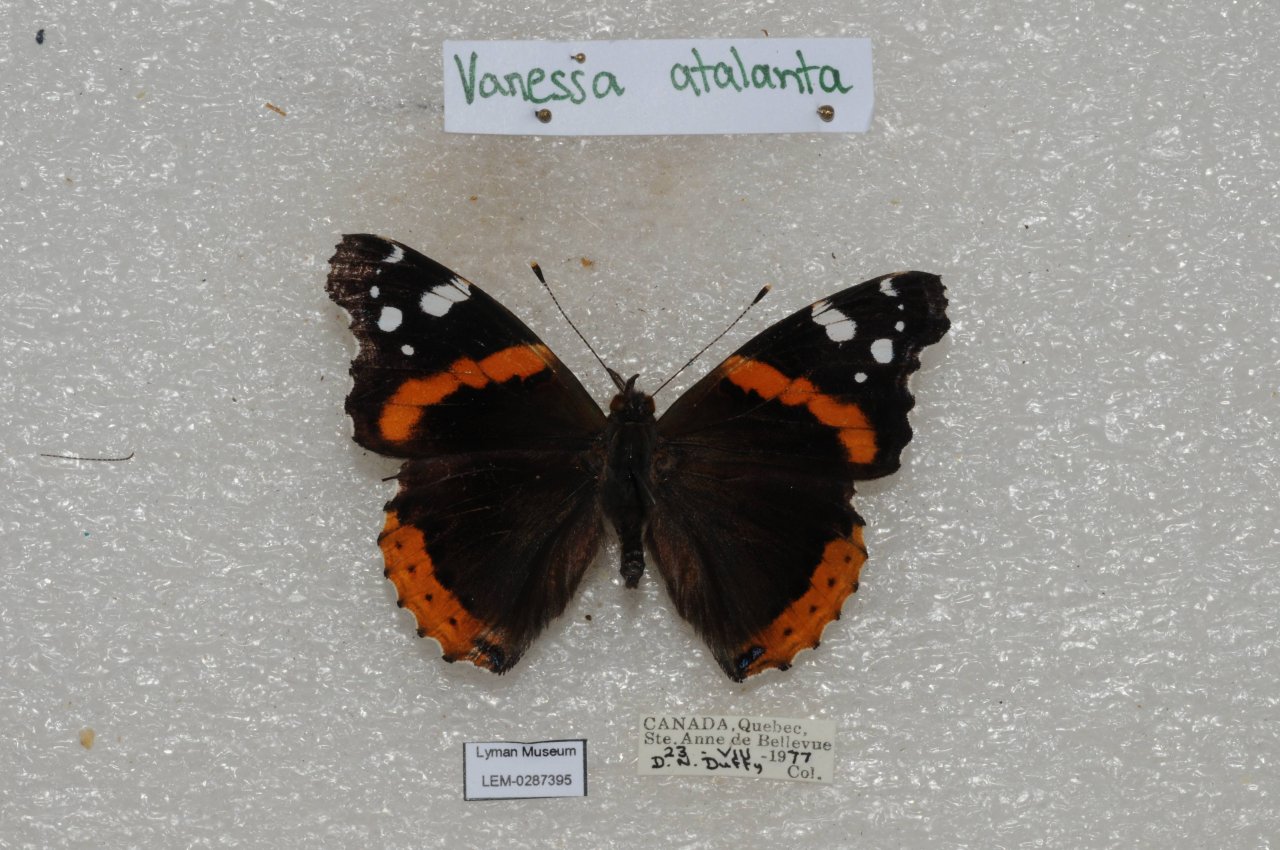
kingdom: Animalia
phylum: Arthropoda
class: Insecta
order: Lepidoptera
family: Nymphalidae
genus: Vanessa
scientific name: Vanessa atalanta
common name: Red Admiral
